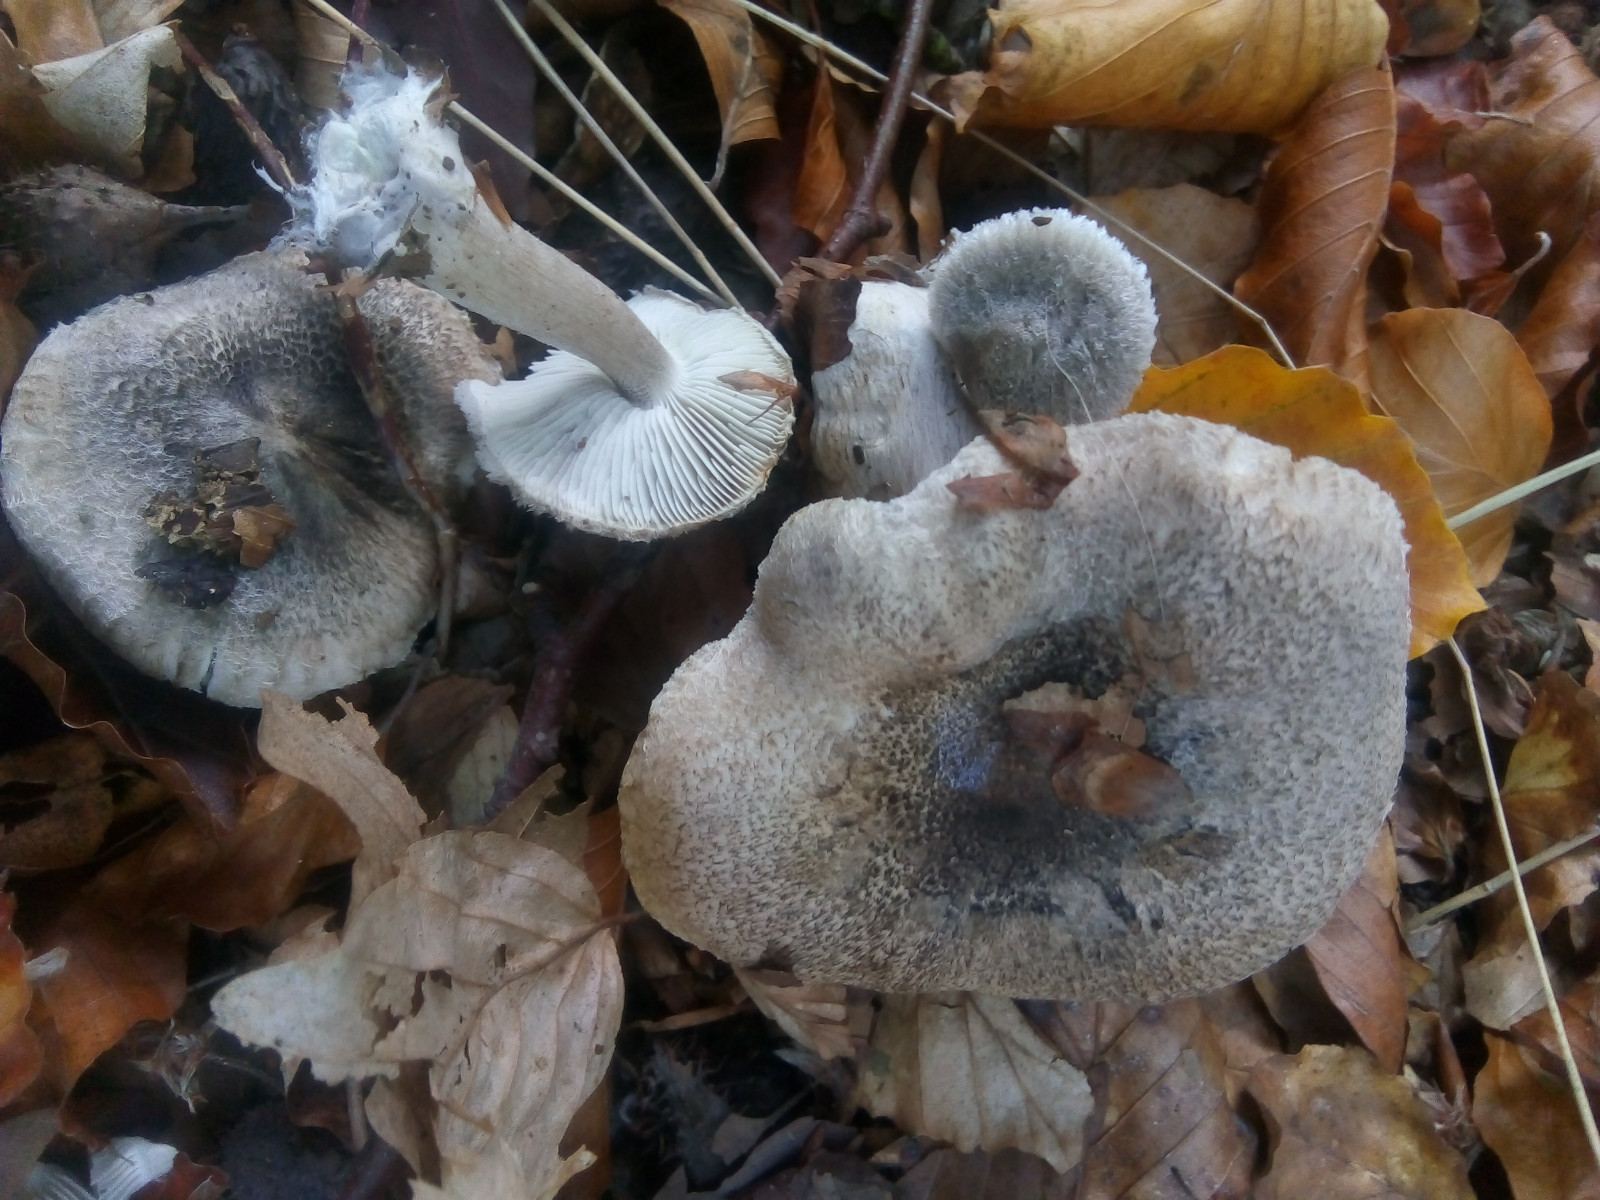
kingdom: Fungi
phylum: Basidiomycota
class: Agaricomycetes
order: Agaricales
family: Tricholomataceae
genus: Tricholoma
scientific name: Tricholoma atrosquamosum
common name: sortskællet ridderhat
